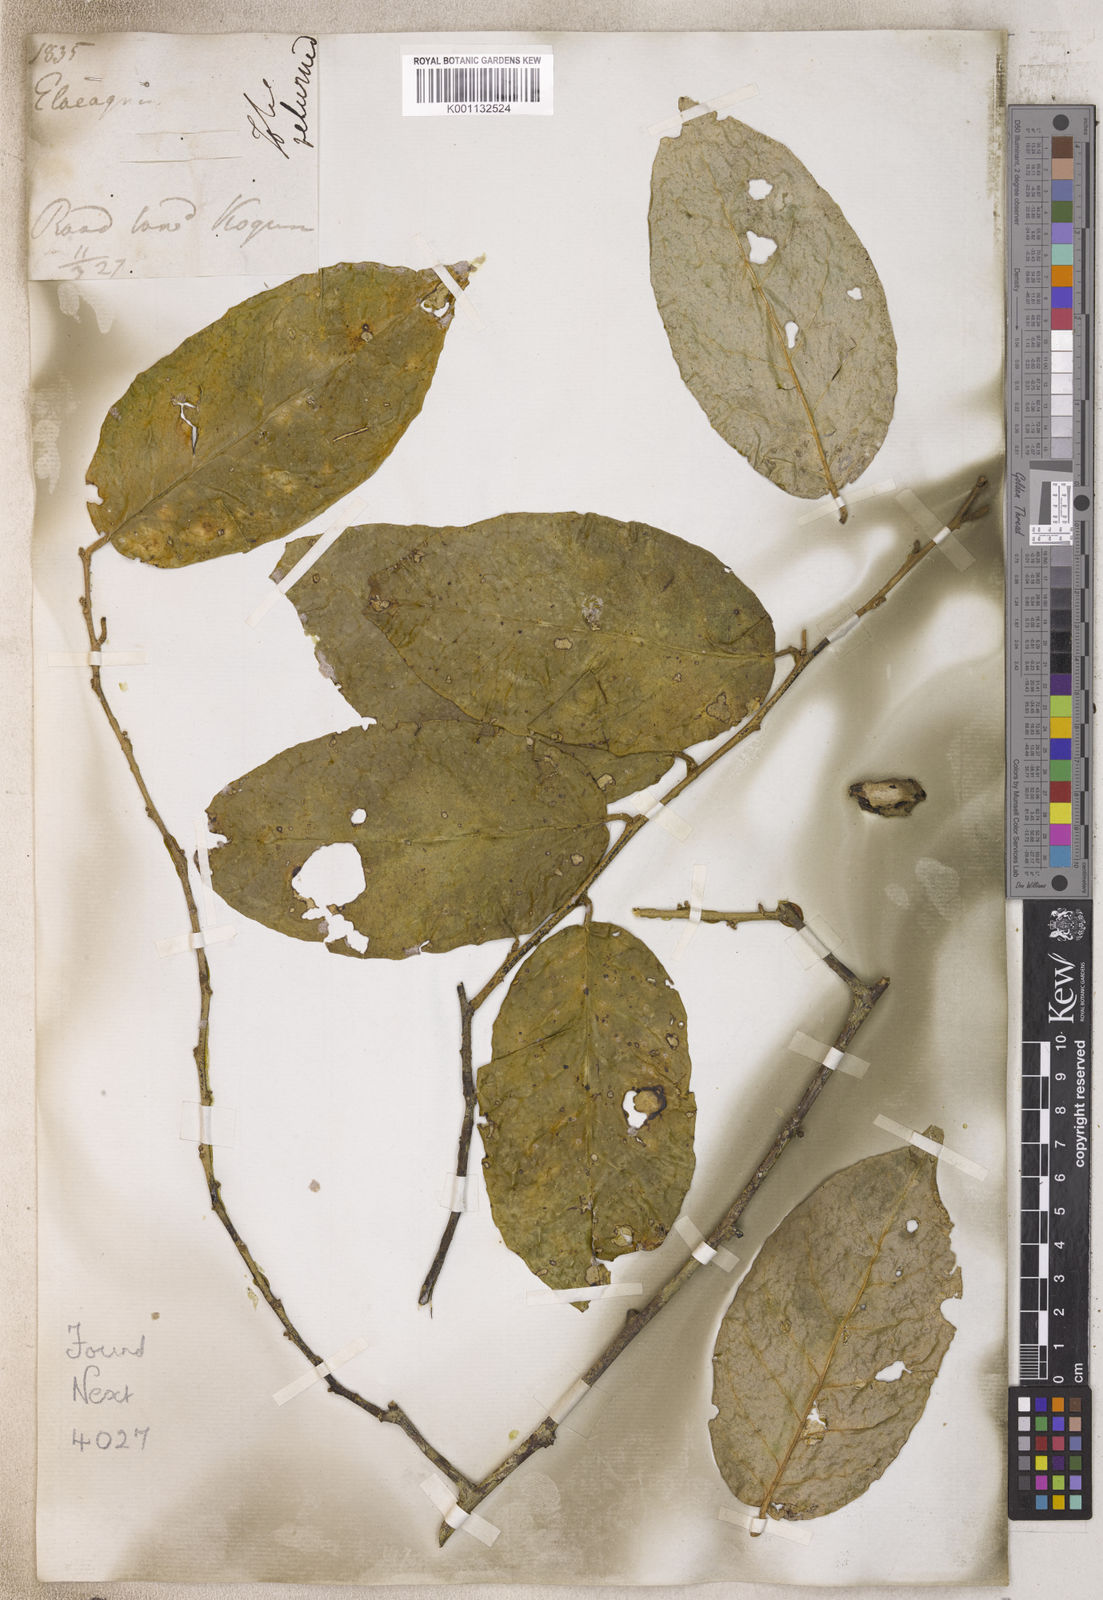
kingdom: Plantae
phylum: Tracheophyta
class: Magnoliopsida
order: Rosales
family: Elaeagnaceae
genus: Elaeagnus
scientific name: Elaeagnus
